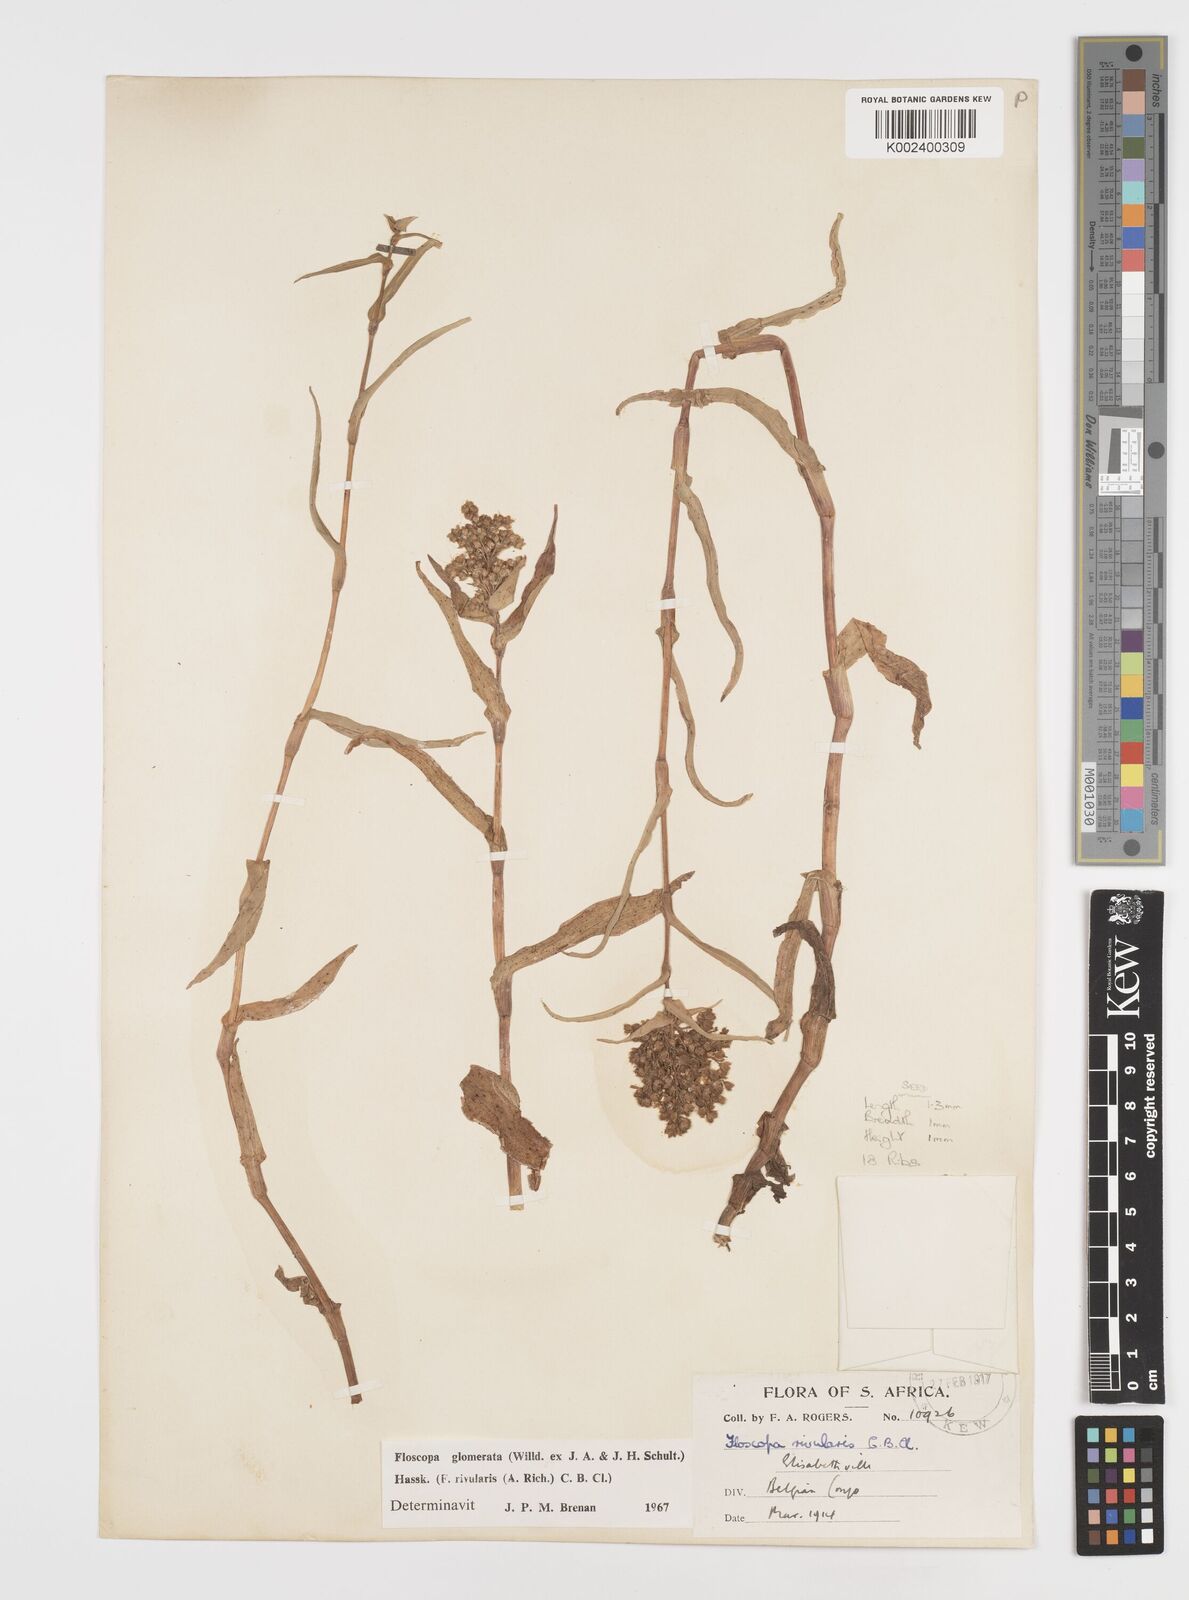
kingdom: Plantae
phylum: Tracheophyta
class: Liliopsida
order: Commelinales
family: Commelinaceae
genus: Floscopa
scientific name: Floscopa glomerata
